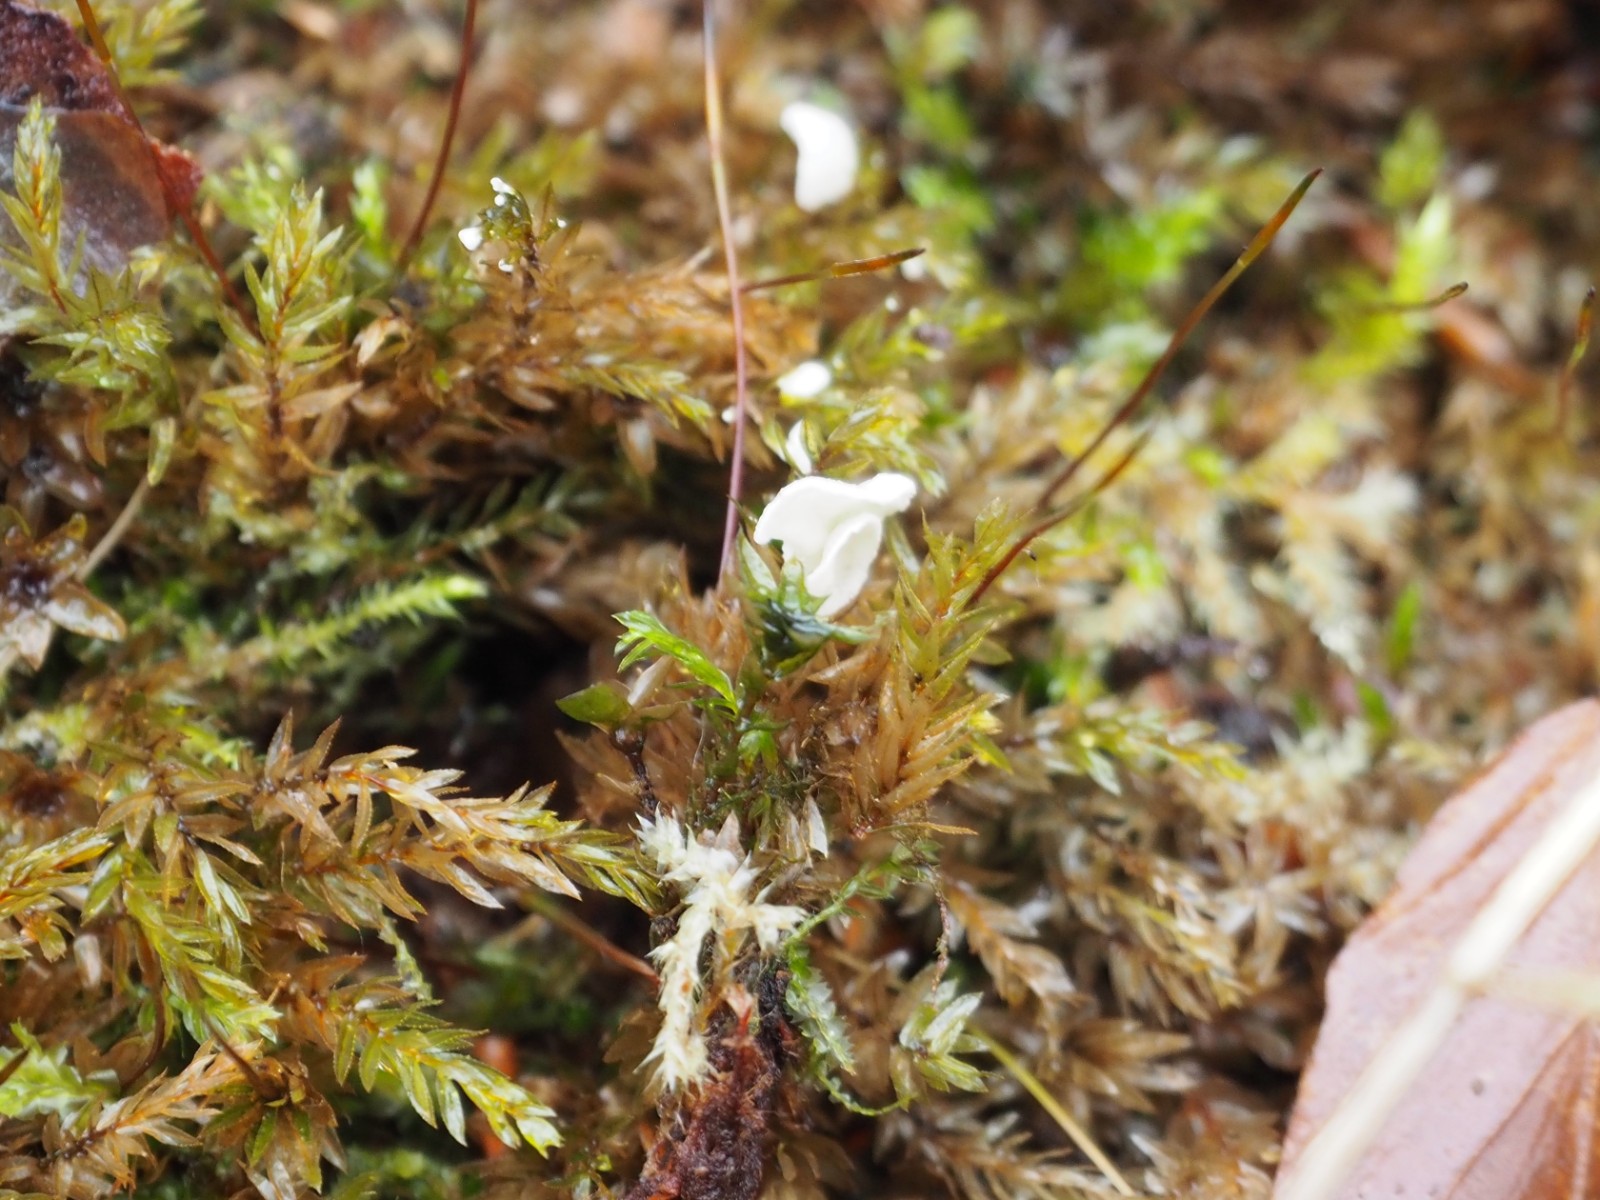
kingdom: Fungi
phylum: Basidiomycota
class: Agaricomycetes
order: Agaricales
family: Hygrophoraceae
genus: Arrhenia
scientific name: Arrhenia retiruga
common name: lille fontænehat
